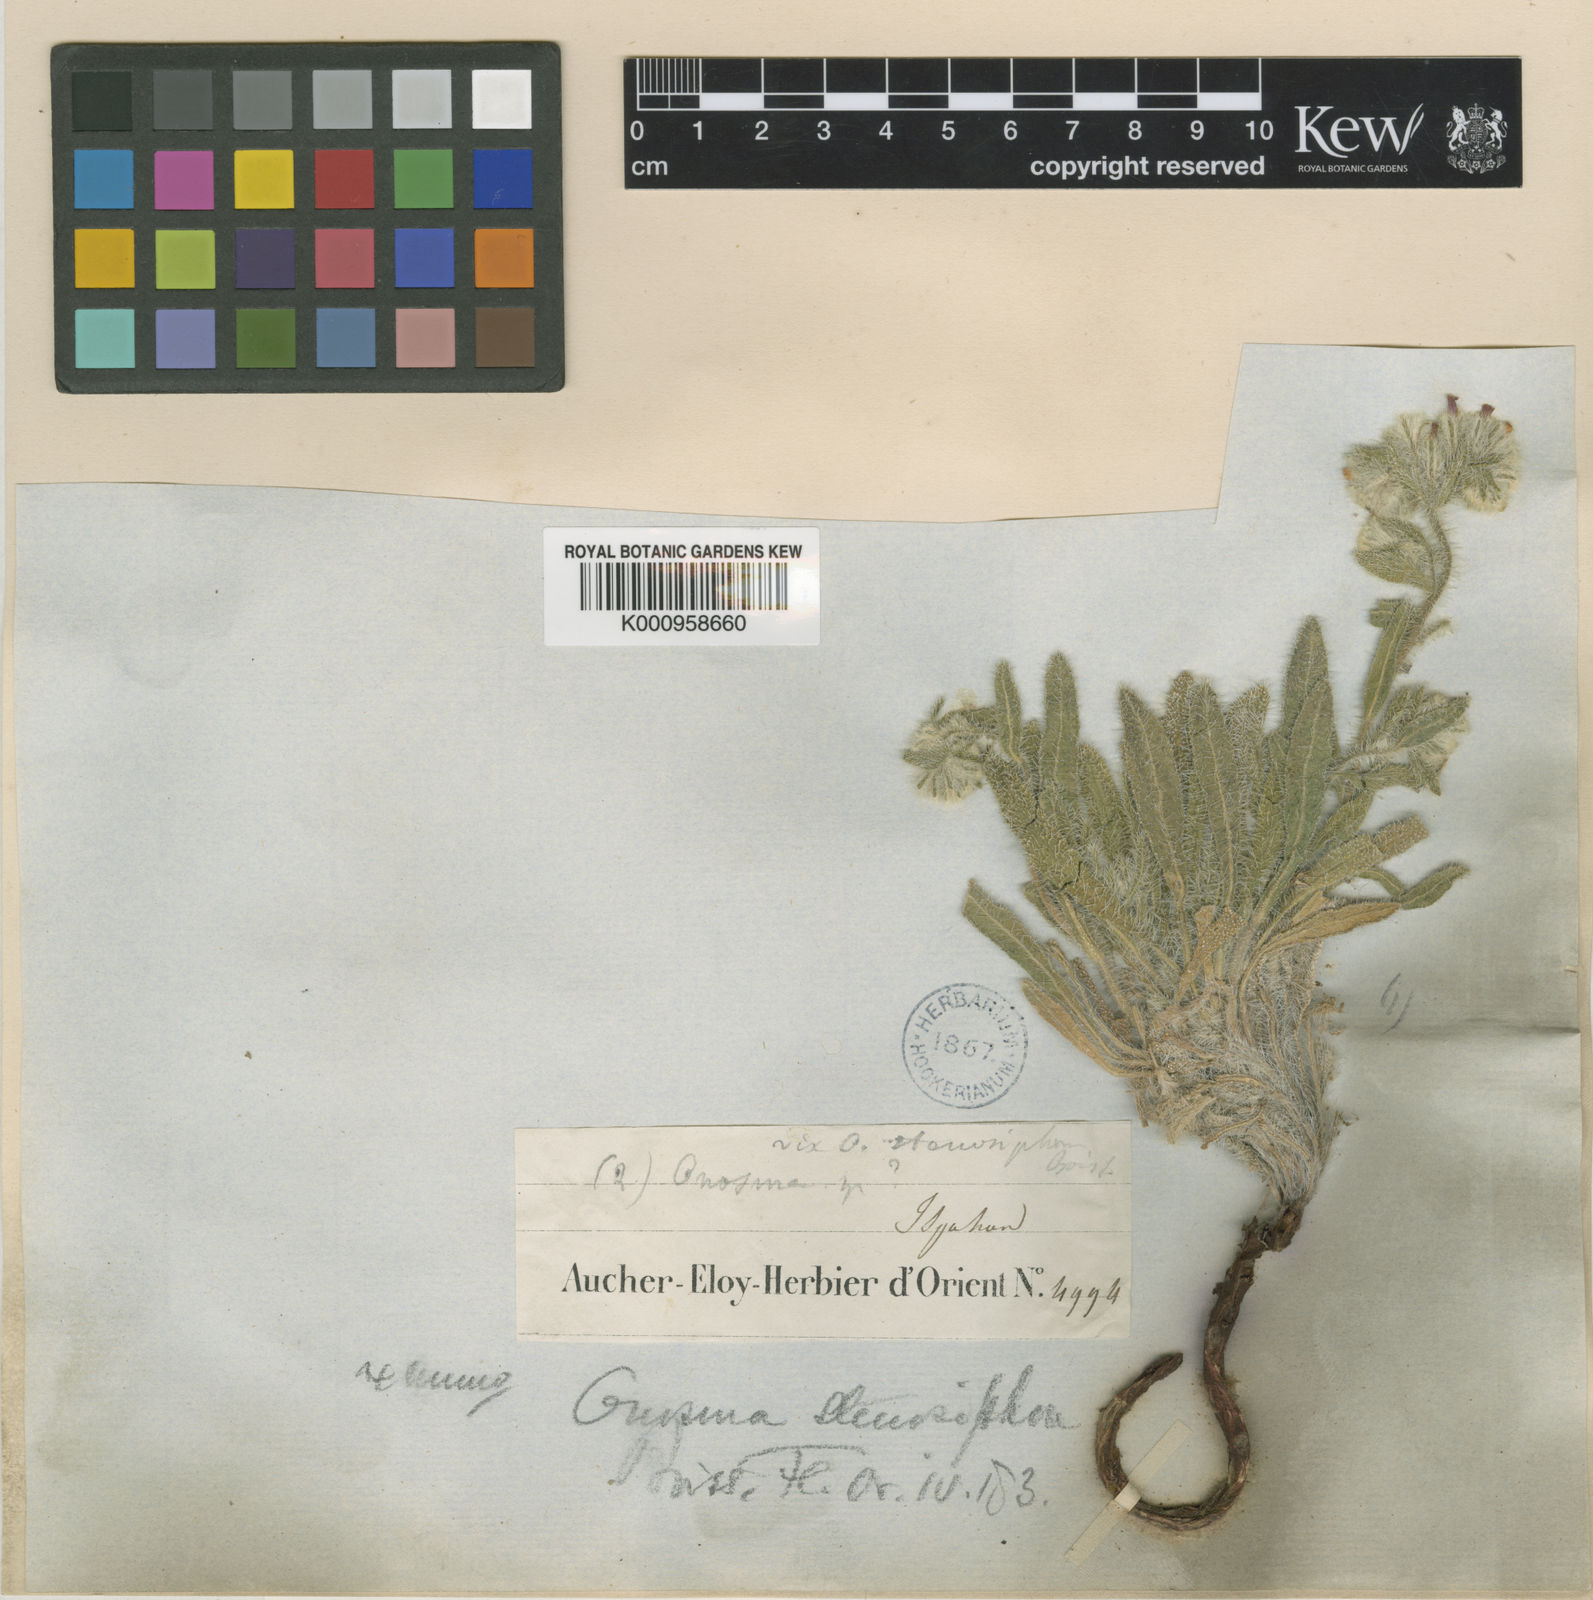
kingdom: Plantae
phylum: Tracheophyta
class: Magnoliopsida
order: Boraginales
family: Boraginaceae
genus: Maharanga
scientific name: Maharanga stenosiphon
